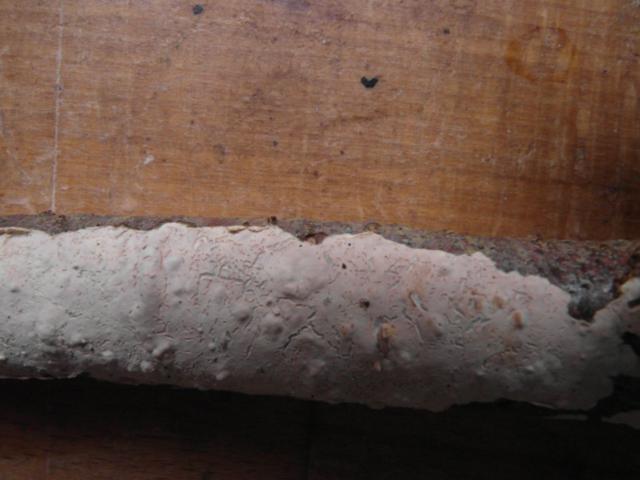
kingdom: Fungi
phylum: Basidiomycota
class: Agaricomycetes
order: Agaricales
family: Physalacriaceae
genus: Cylindrobasidium
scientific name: Cylindrobasidium evolvens
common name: sprækkehinde
